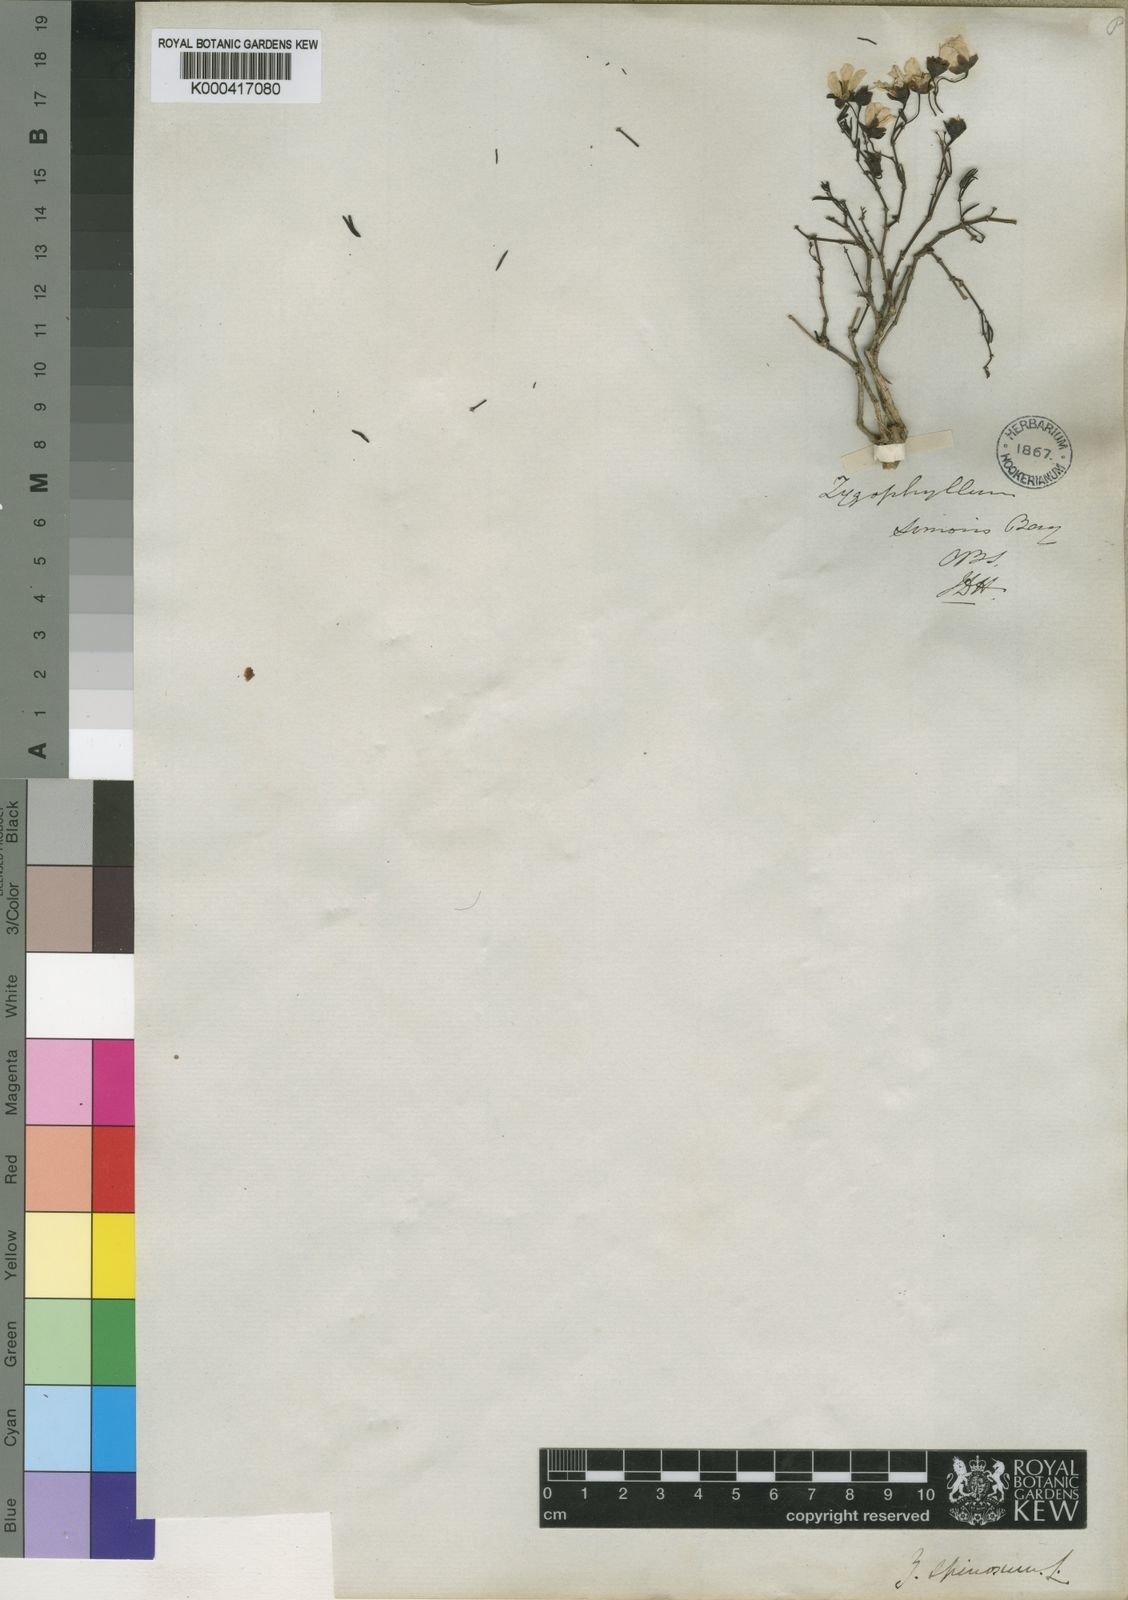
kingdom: Plantae
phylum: Tracheophyta
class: Magnoliopsida
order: Zygophyllales
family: Zygophyllaceae
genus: Roepera
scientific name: Roepera spinosa
